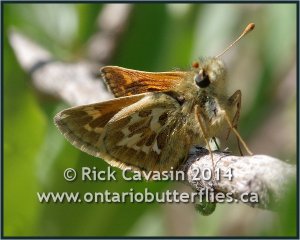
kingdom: Animalia
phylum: Arthropoda
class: Insecta
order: Lepidoptera
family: Hesperiidae
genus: Polites
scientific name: Polites sabuleti
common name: Draco Skipper
